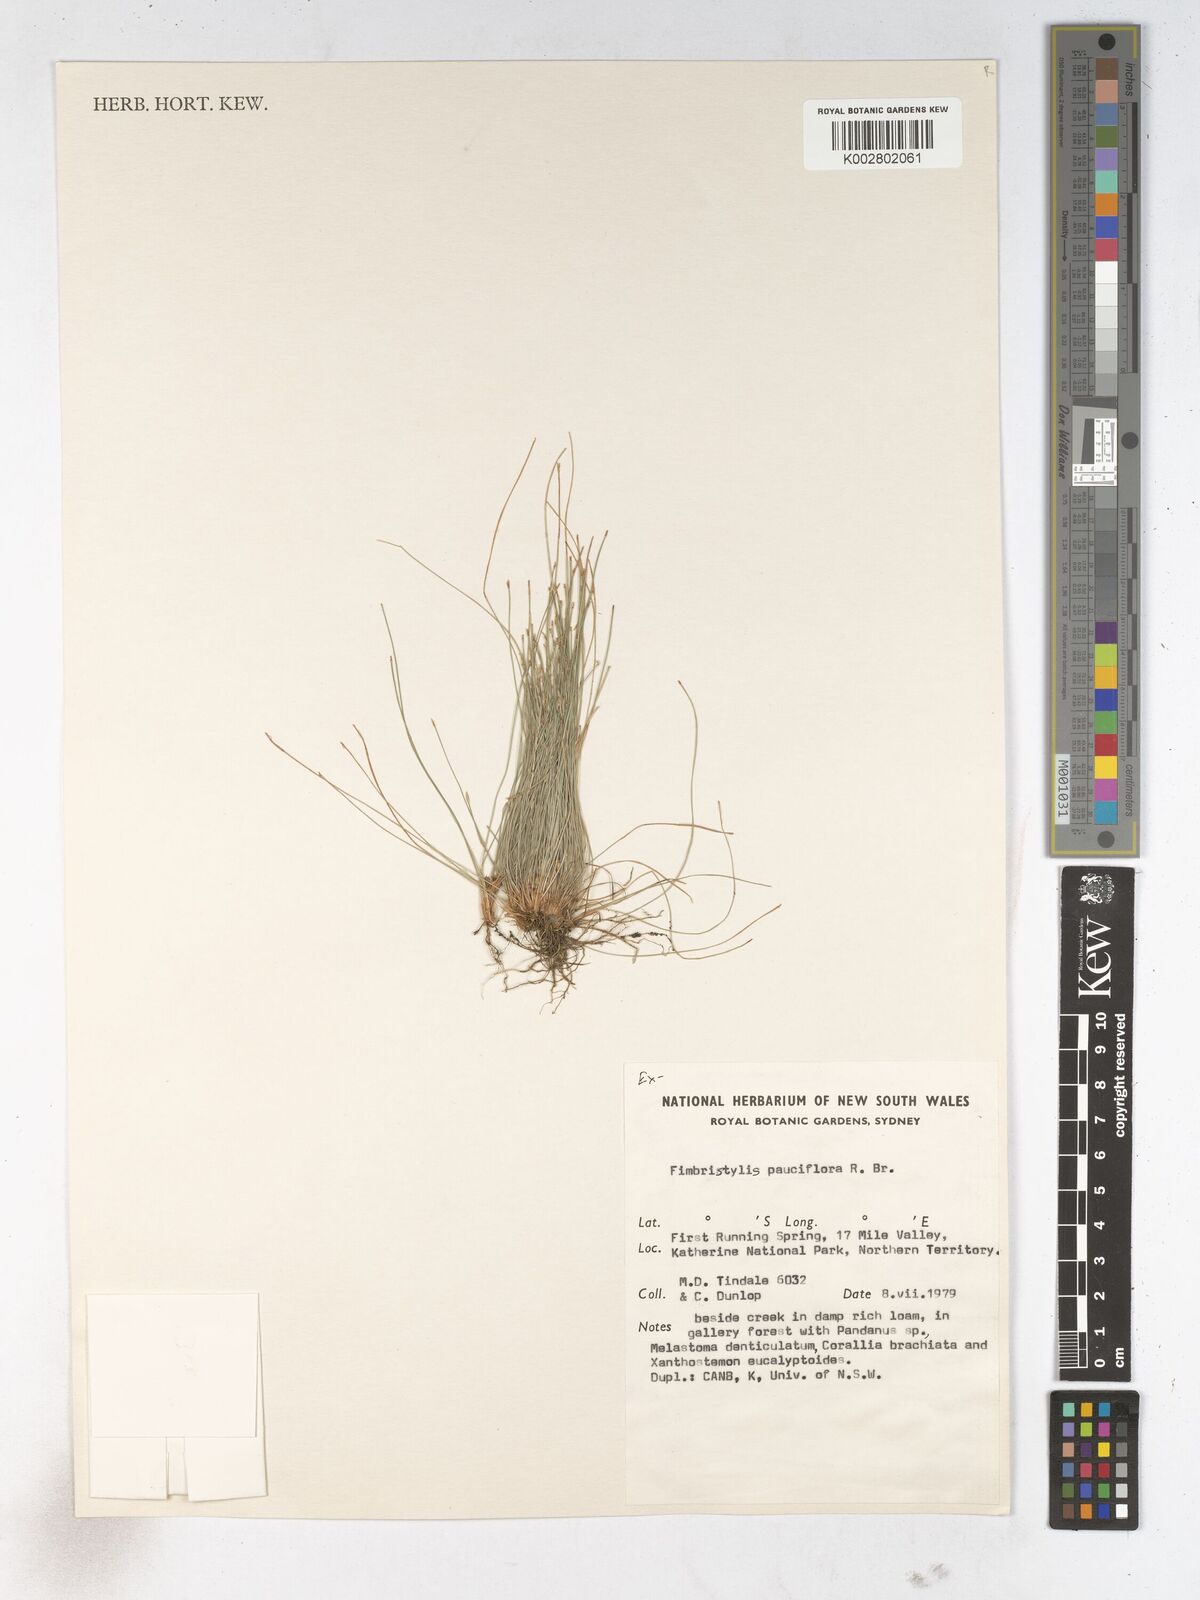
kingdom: Plantae
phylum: Tracheophyta
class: Liliopsida
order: Poales
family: Cyperaceae
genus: Fimbristylis
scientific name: Fimbristylis pauciflora
